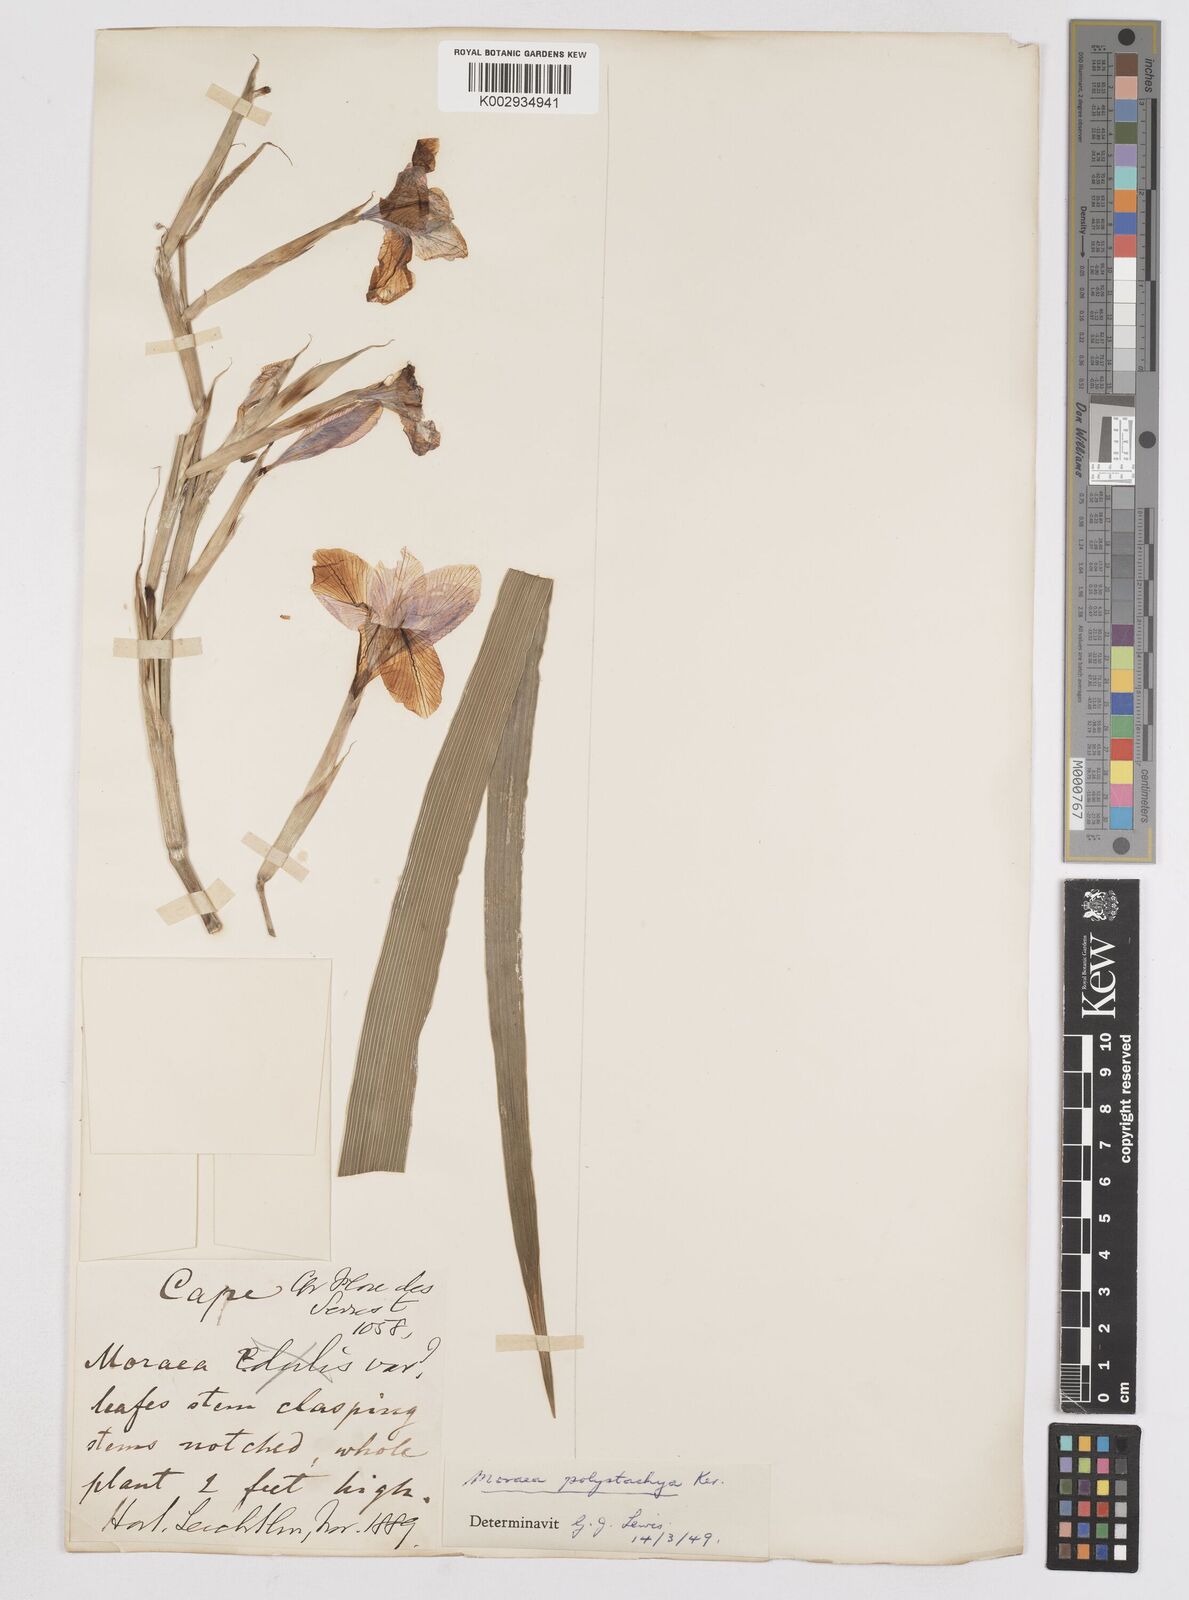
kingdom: Plantae
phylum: Tracheophyta
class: Liliopsida
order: Asparagales
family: Iridaceae
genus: Moraea
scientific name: Moraea polystachya
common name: Blue-tulip
